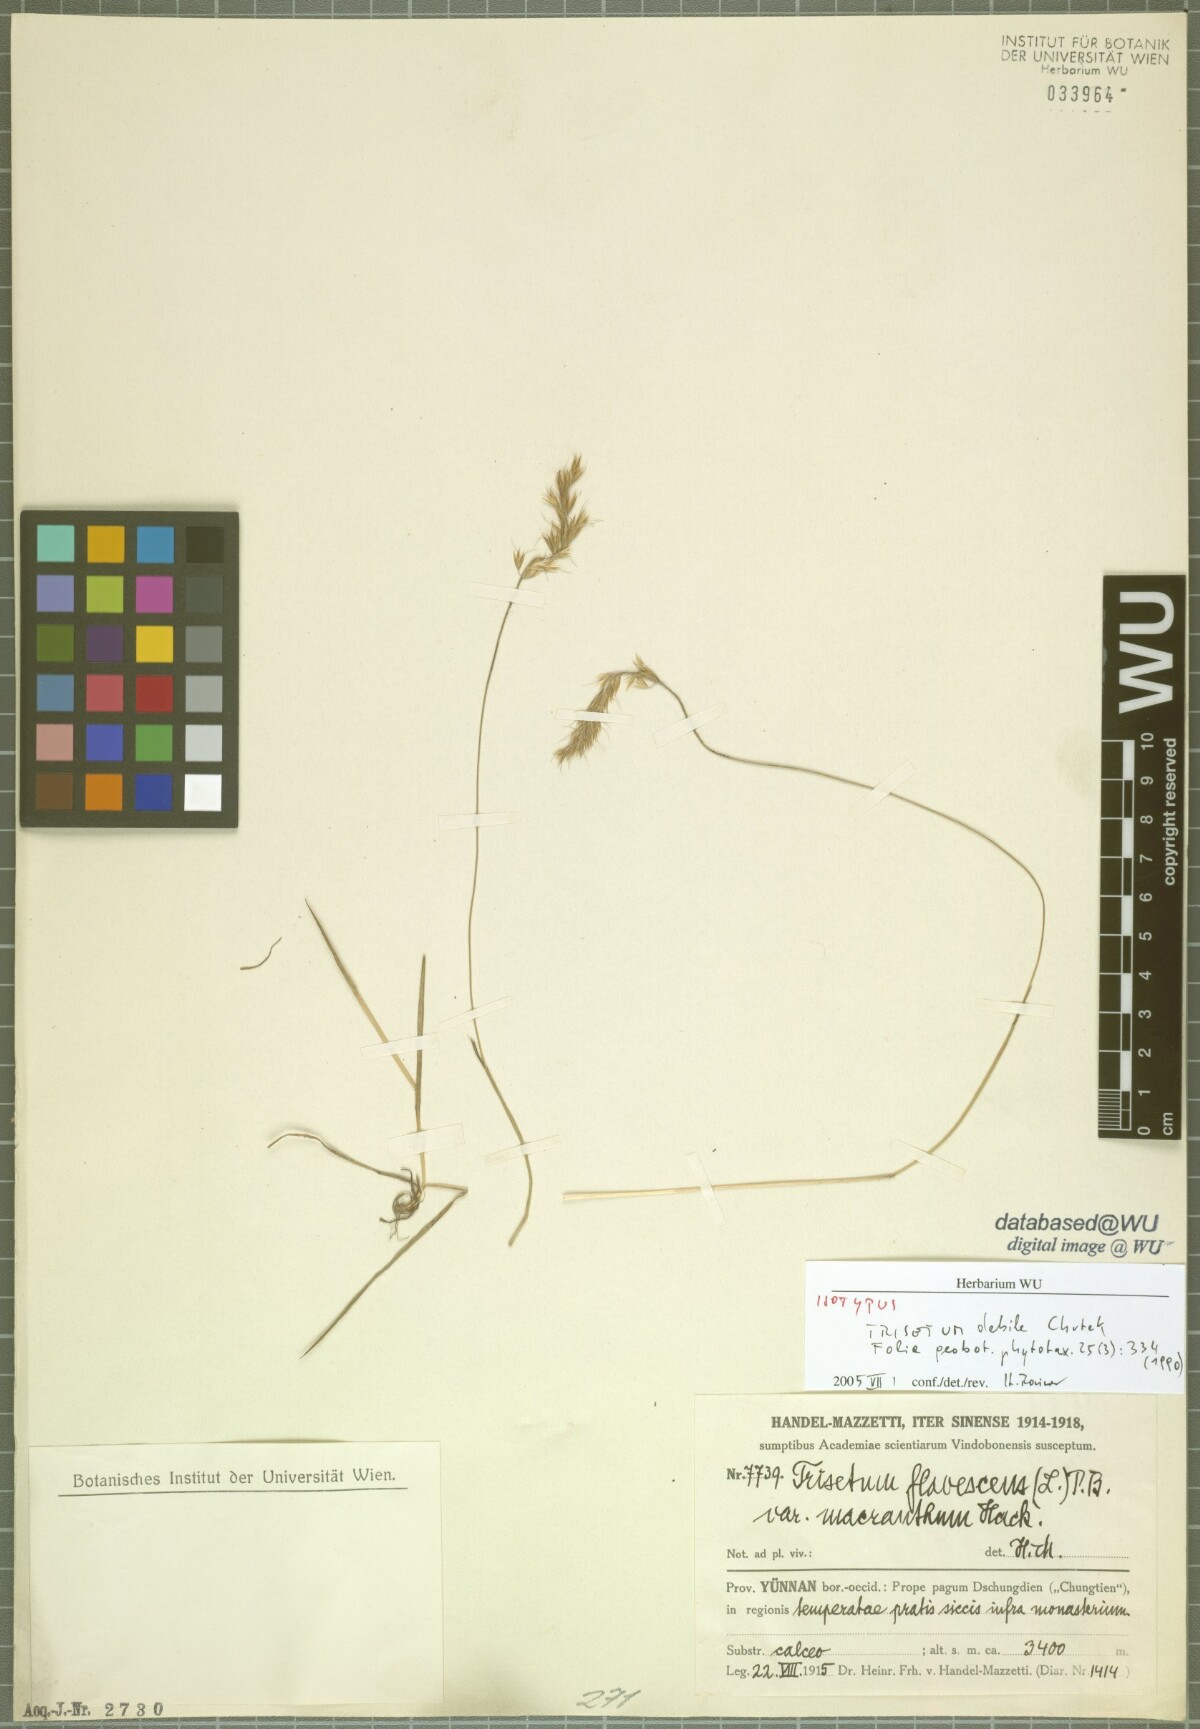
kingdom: Plantae
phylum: Tracheophyta
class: Liliopsida
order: Poales
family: Poaceae
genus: Trisetum
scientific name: Trisetum debile
